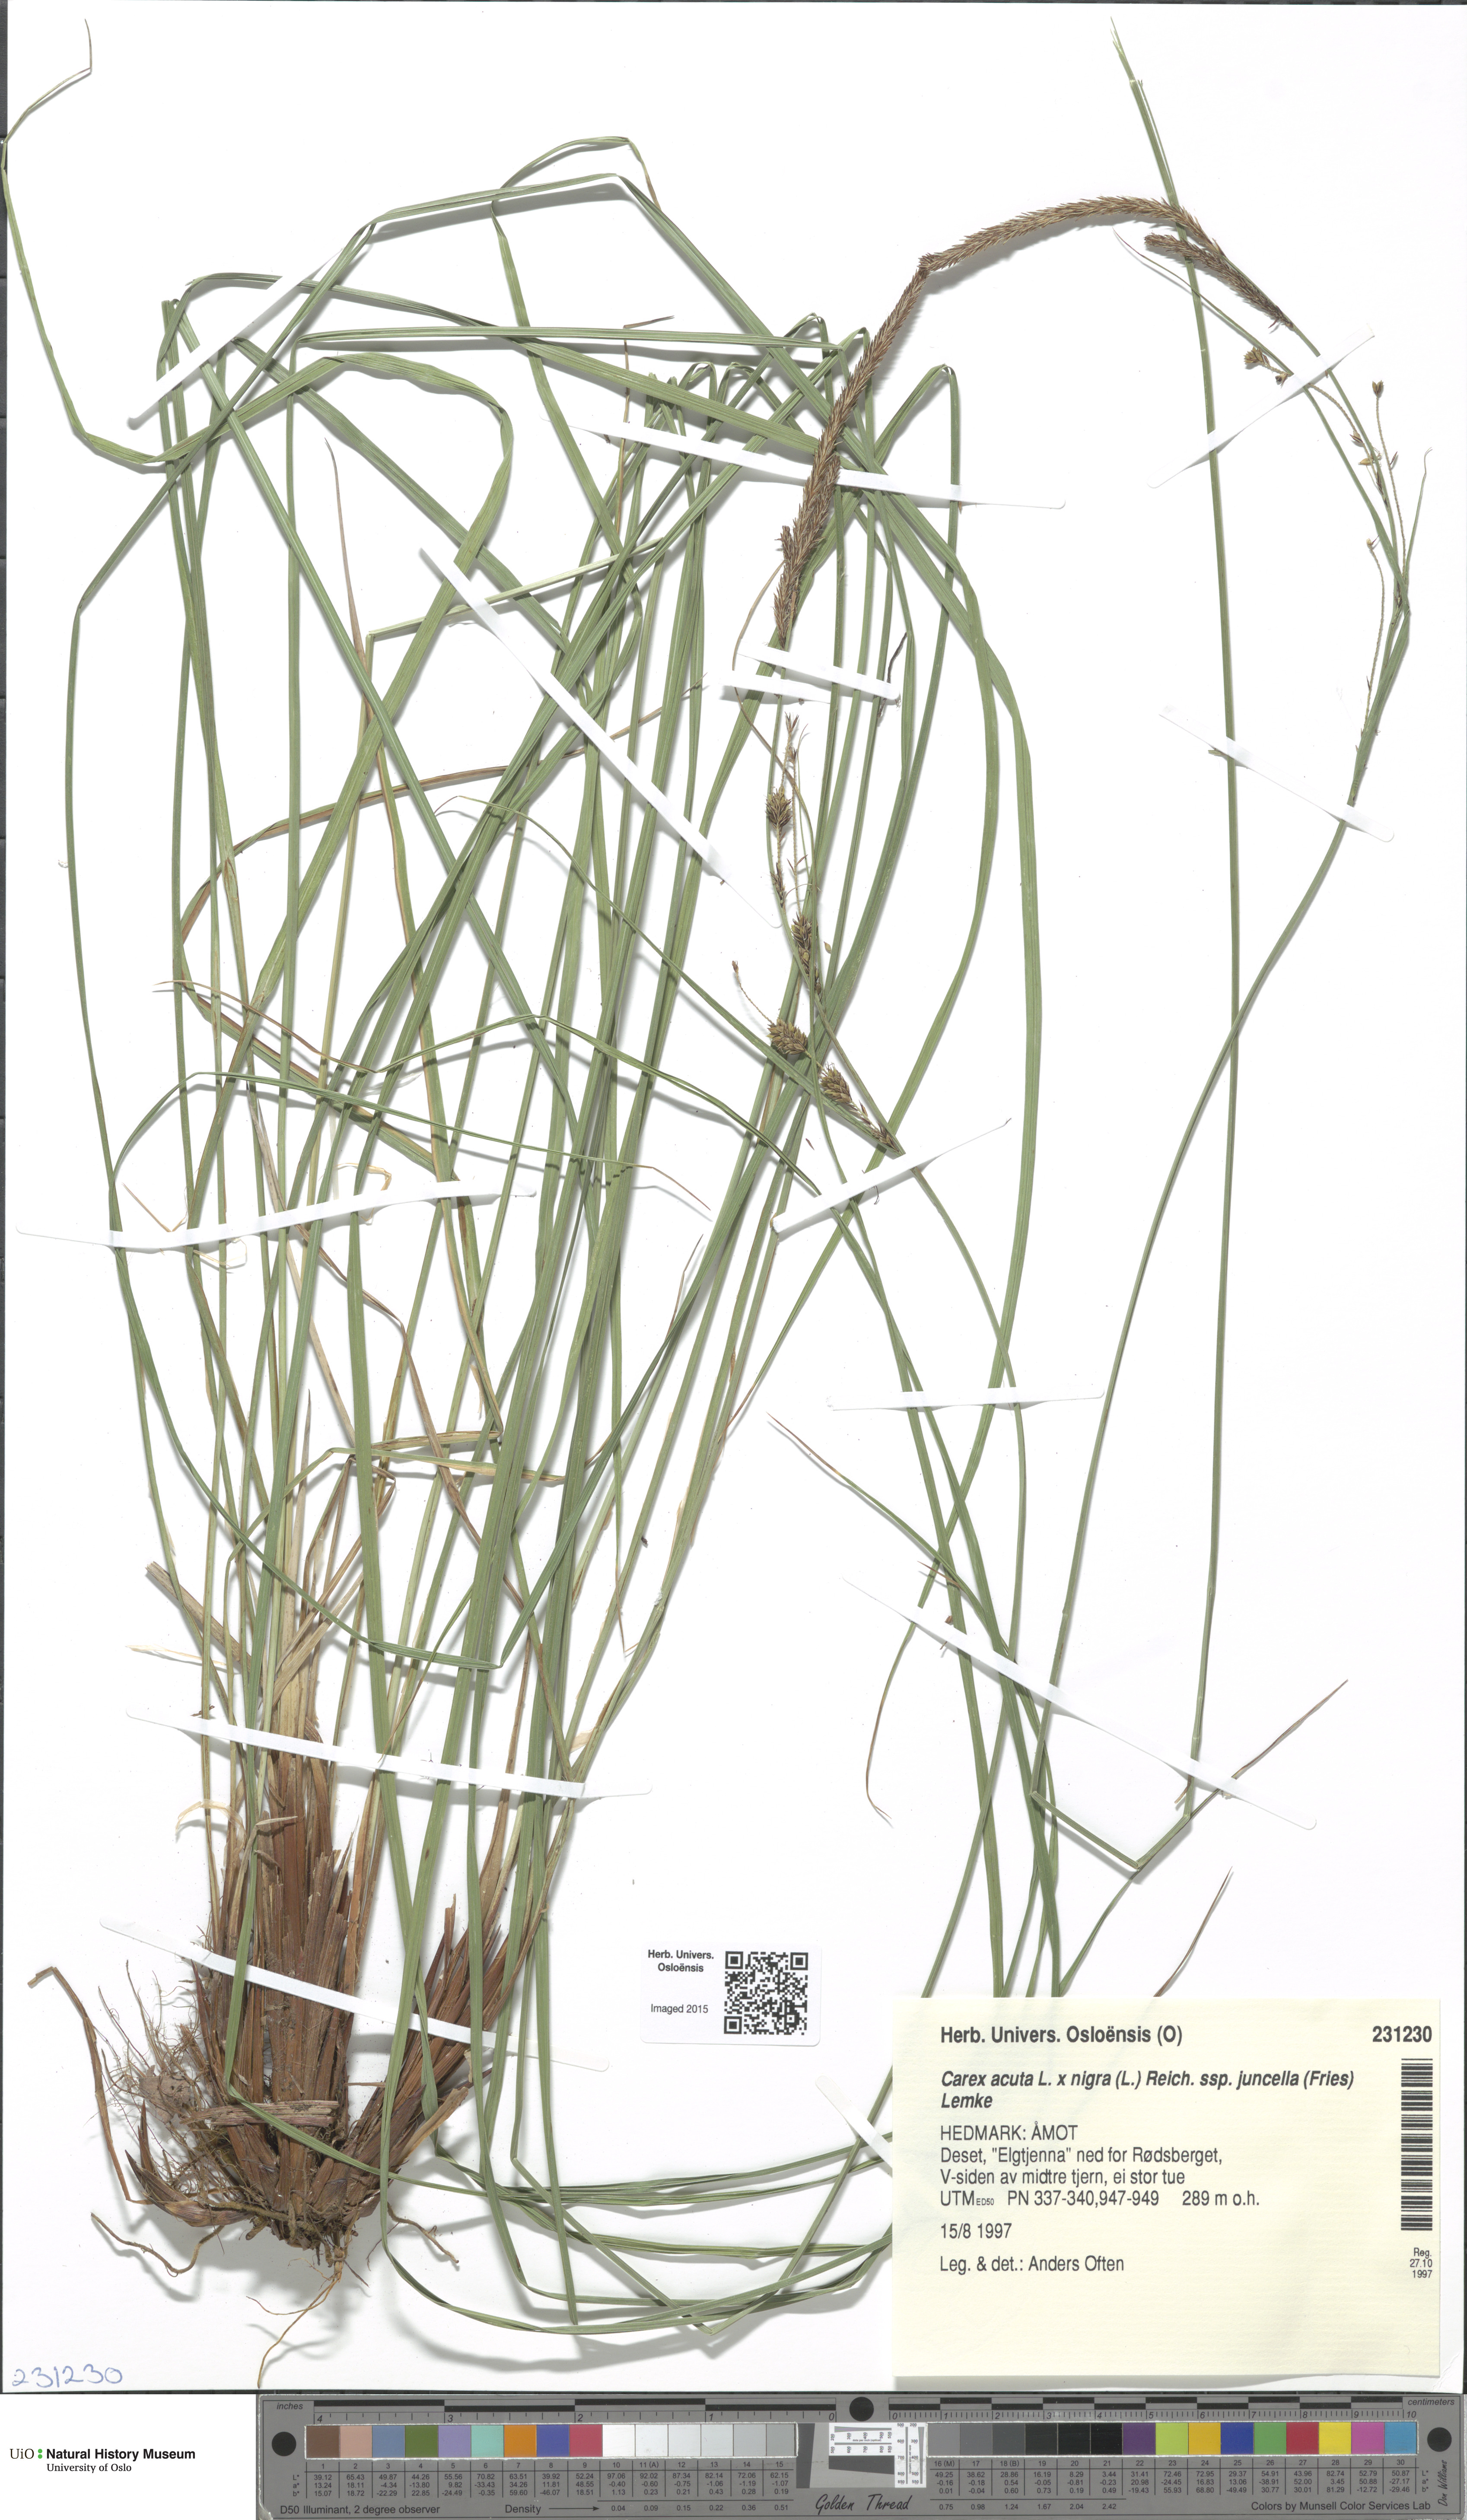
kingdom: Plantae
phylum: Tracheophyta
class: Liliopsida
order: Poales
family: Cyperaceae
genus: Carex
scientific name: Carex
